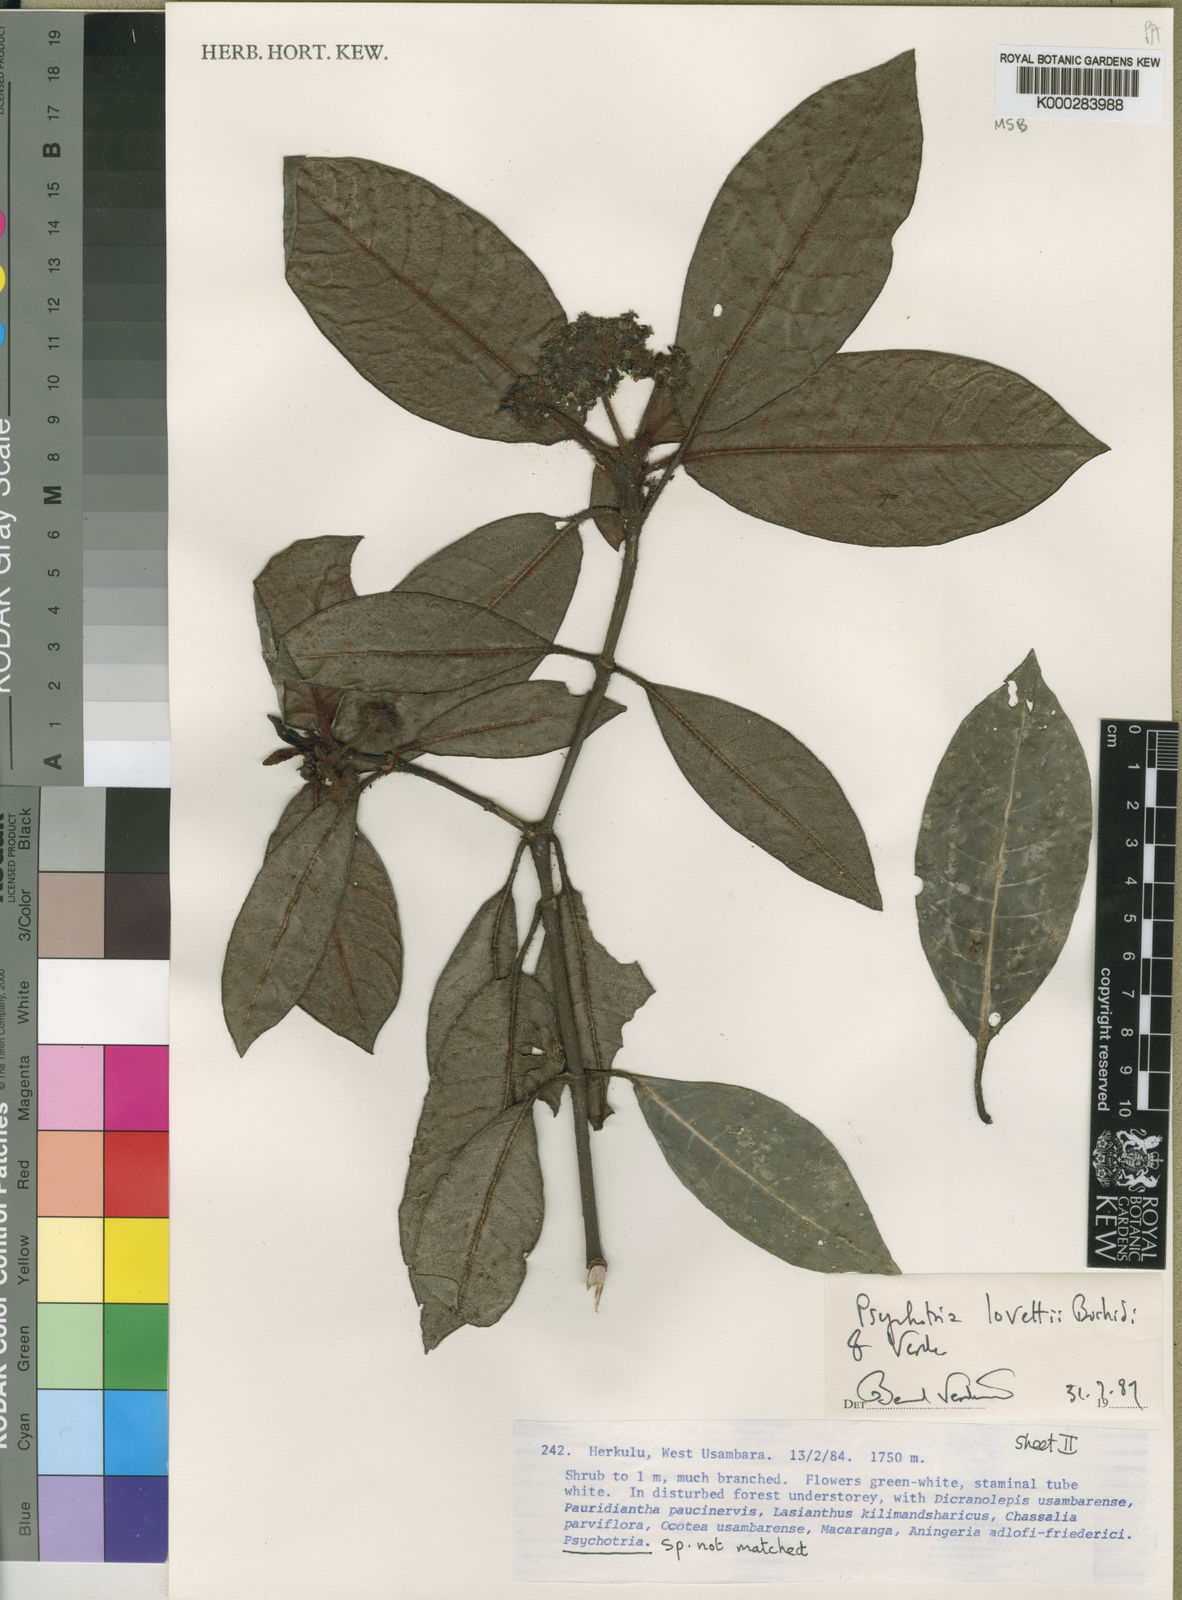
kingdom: Plantae
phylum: Tracheophyta
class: Magnoliopsida
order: Gentianales
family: Rubiaceae
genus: Psychotria
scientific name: Psychotria lovettii
